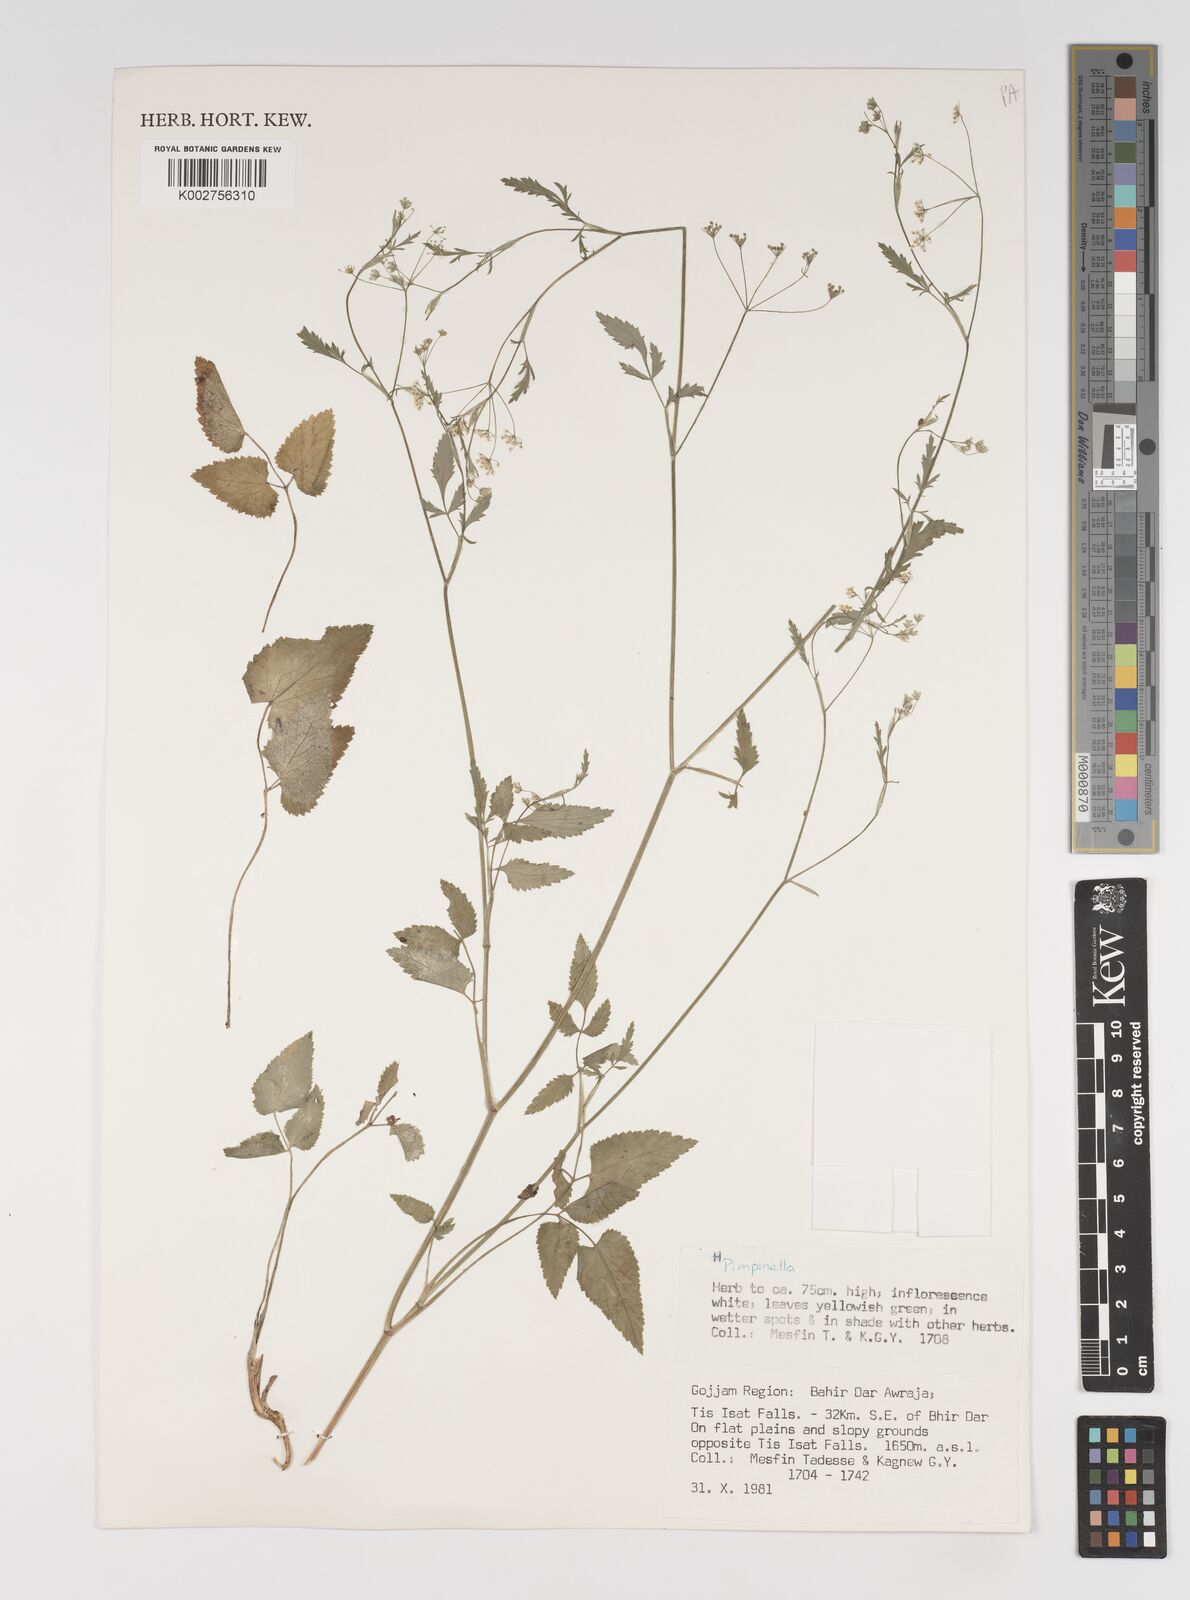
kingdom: Plantae
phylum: Tracheophyta
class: Magnoliopsida
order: Apiales
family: Apiaceae
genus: Pimpinella
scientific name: Pimpinella peregrina
